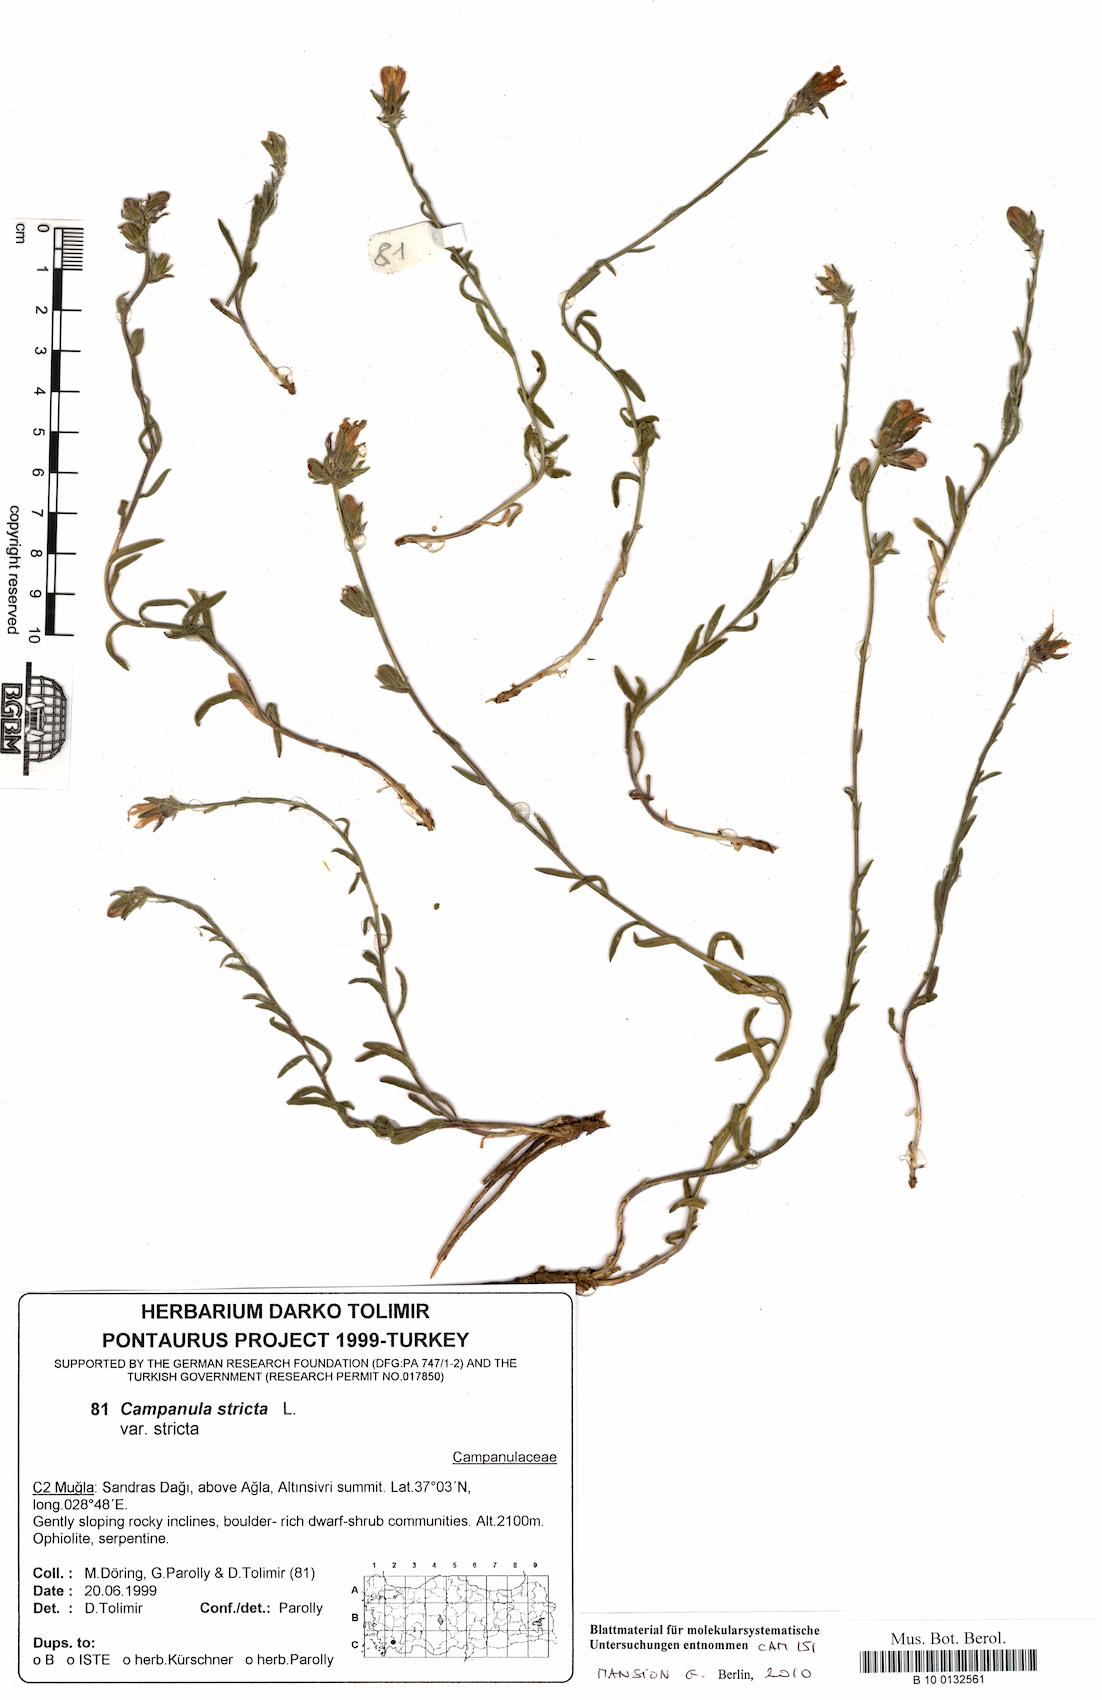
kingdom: Plantae
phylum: Tracheophyta
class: Magnoliopsida
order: Asterales
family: Campanulaceae
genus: Campanula
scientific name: Campanula stricta
